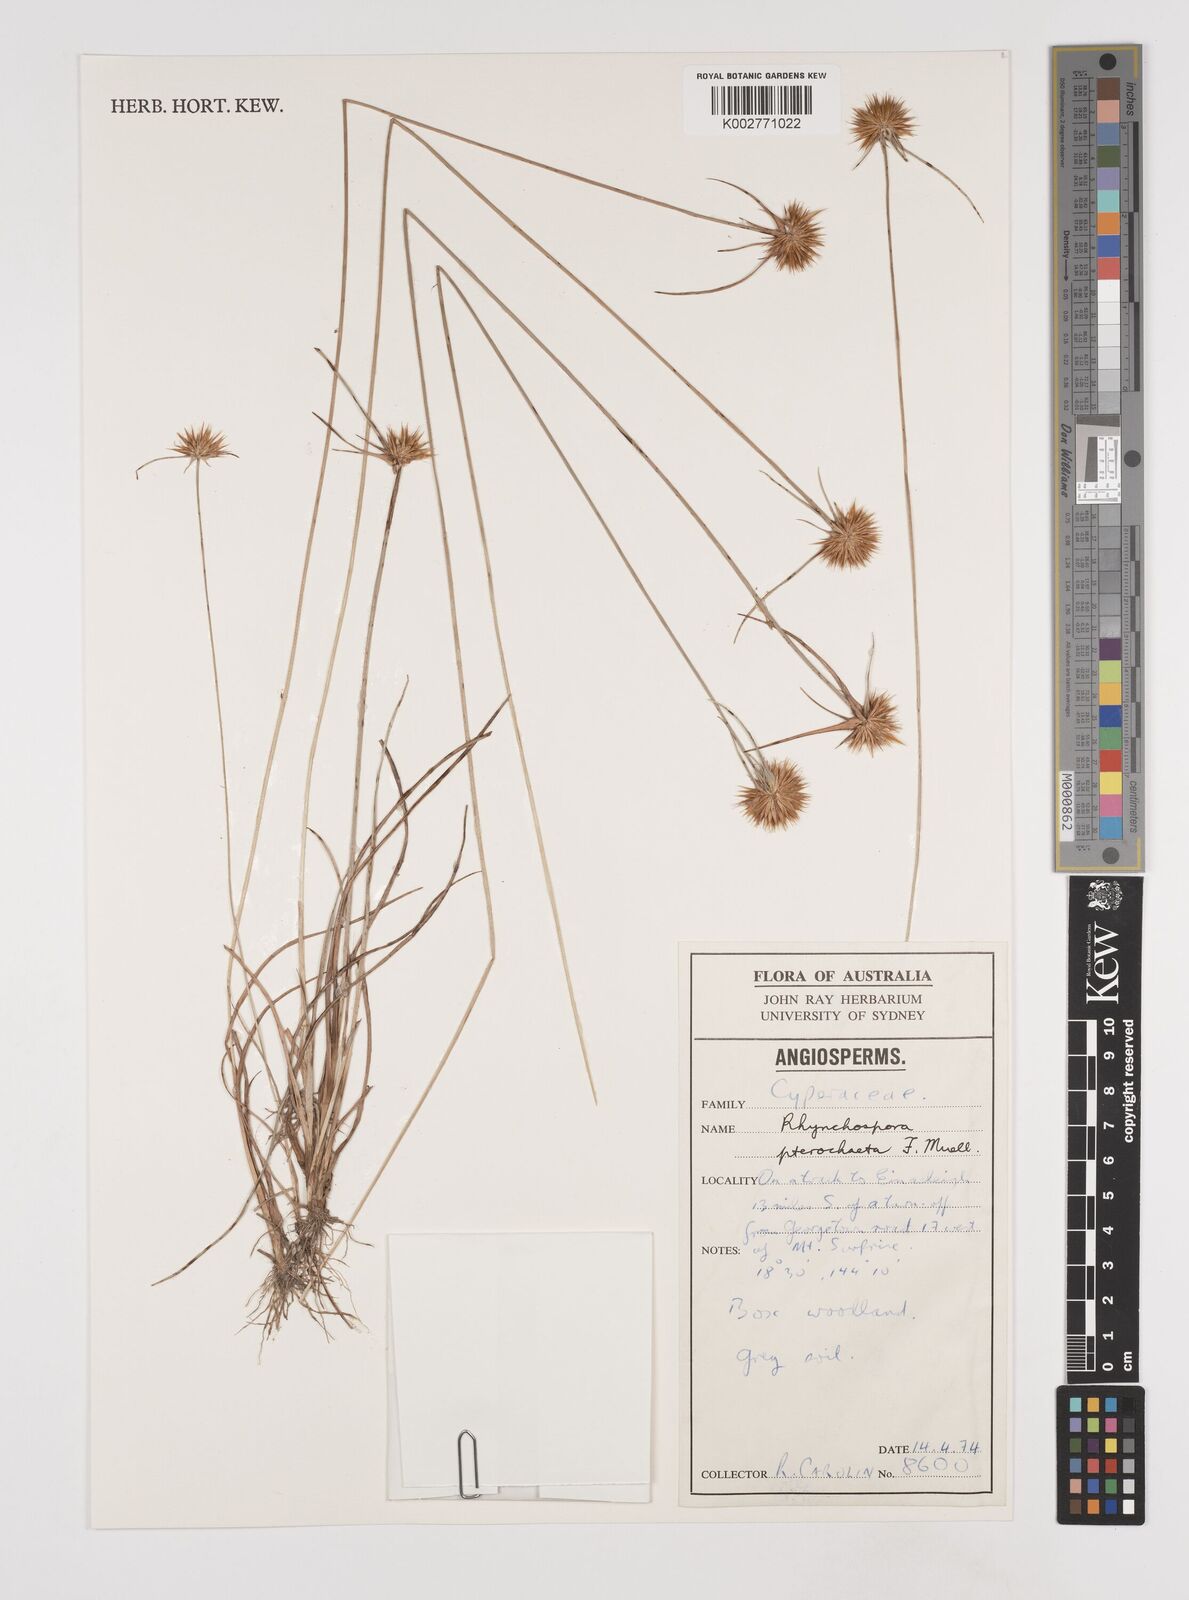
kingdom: Plantae
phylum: Tracheophyta
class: Liliopsida
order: Poales
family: Cyperaceae
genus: Rhynchospora
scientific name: Rhynchospora pterochaeta
